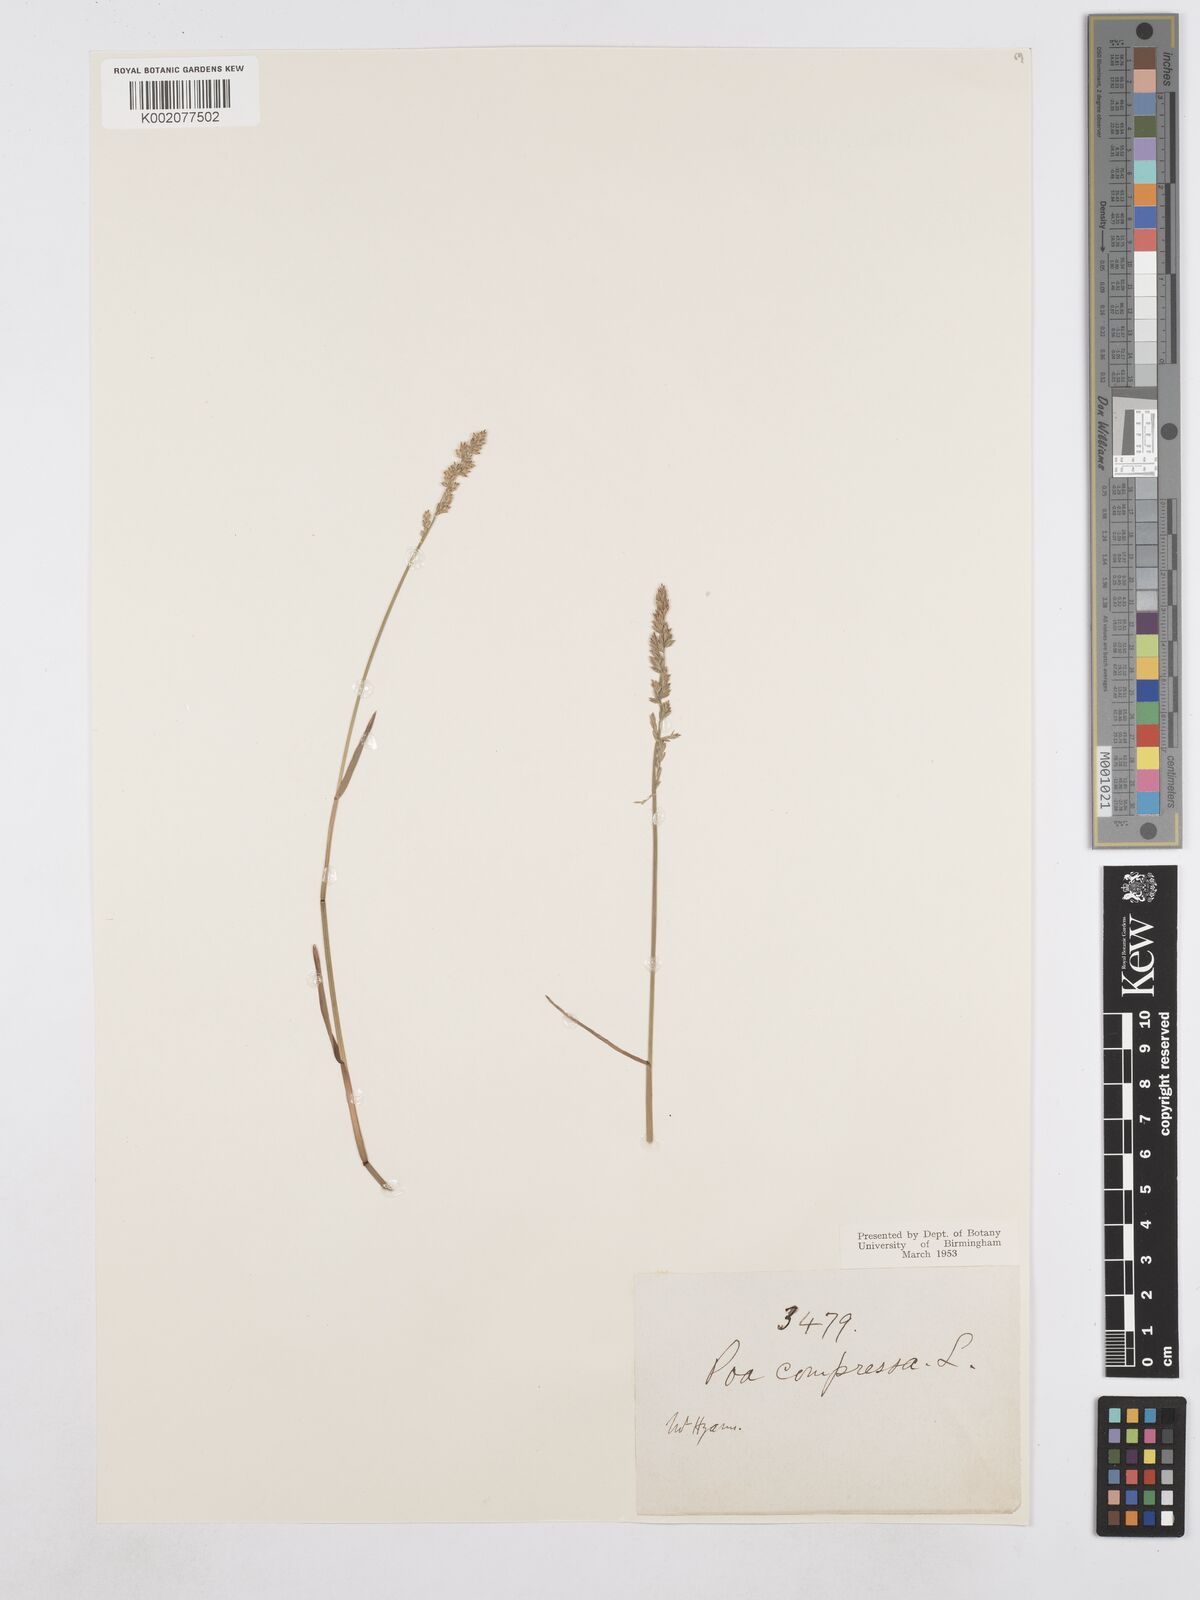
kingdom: Plantae
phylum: Tracheophyta
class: Liliopsida
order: Poales
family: Poaceae
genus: Poa
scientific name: Poa compressa
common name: Canada bluegrass
